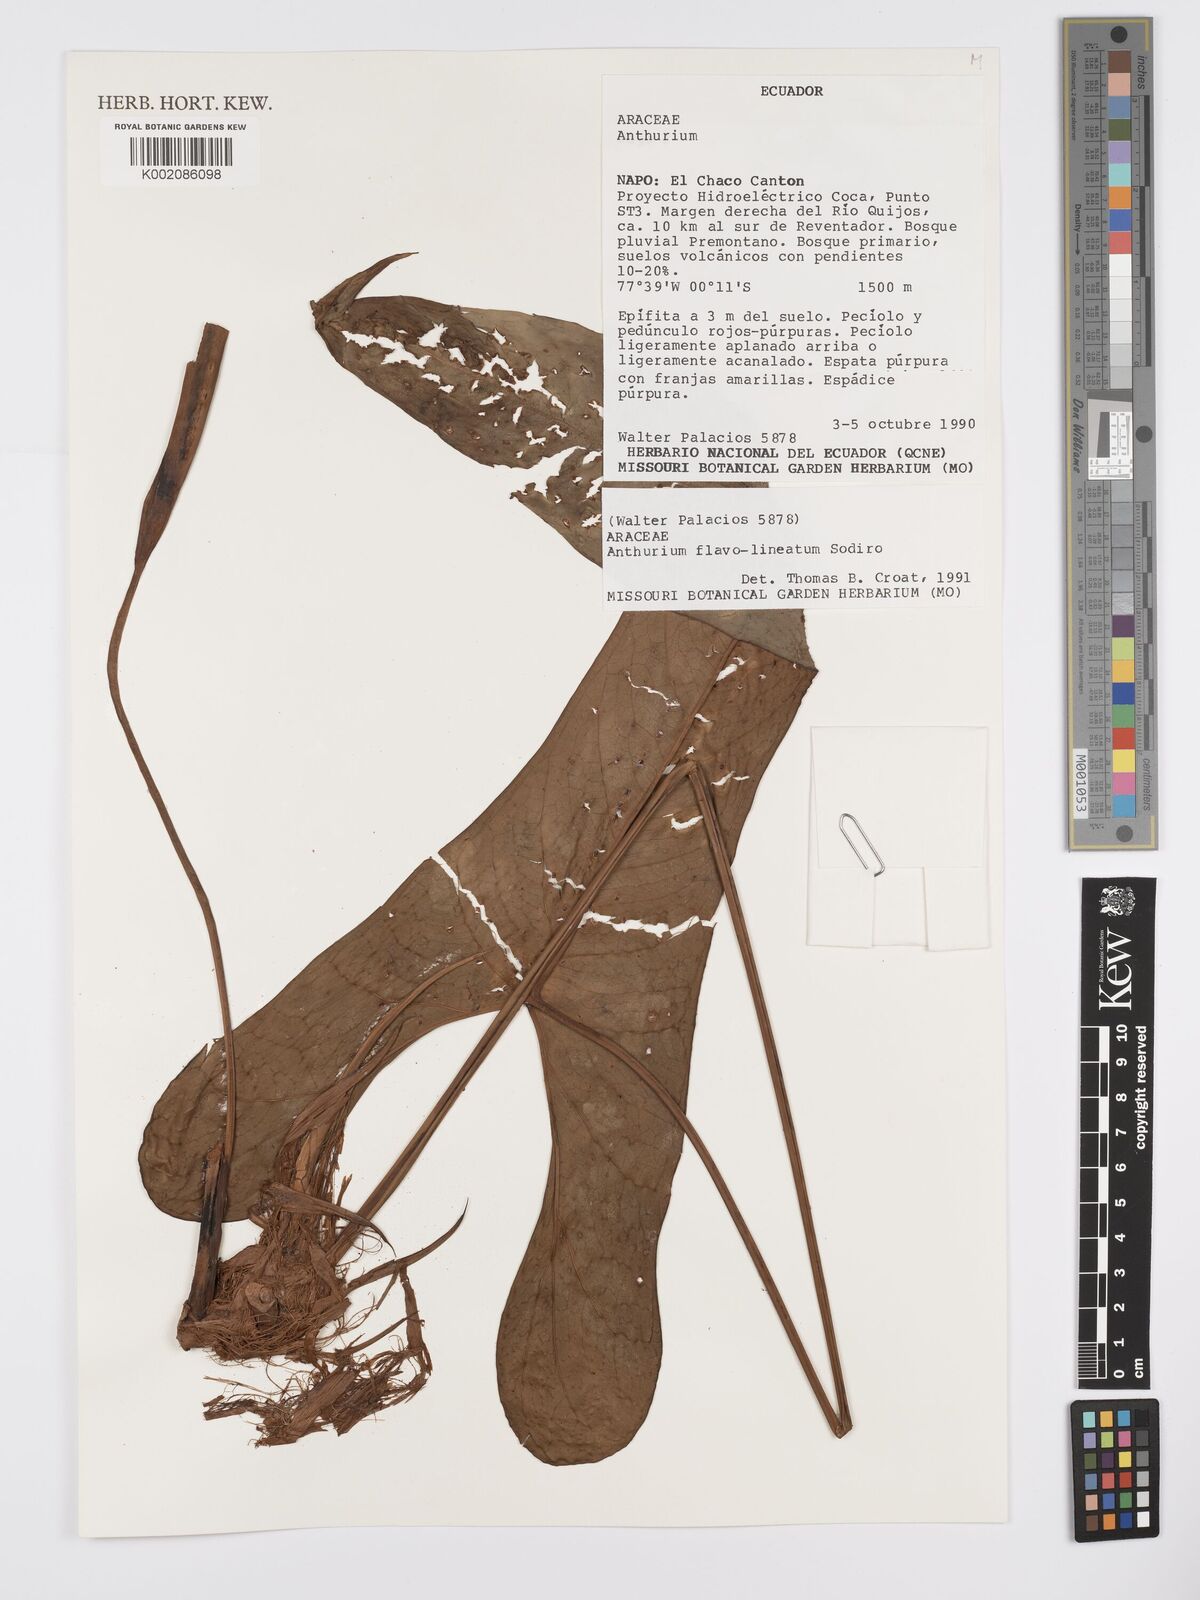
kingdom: Plantae
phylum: Tracheophyta
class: Liliopsida
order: Alismatales
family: Araceae
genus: Anthurium
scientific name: Anthurium flavolineatum
